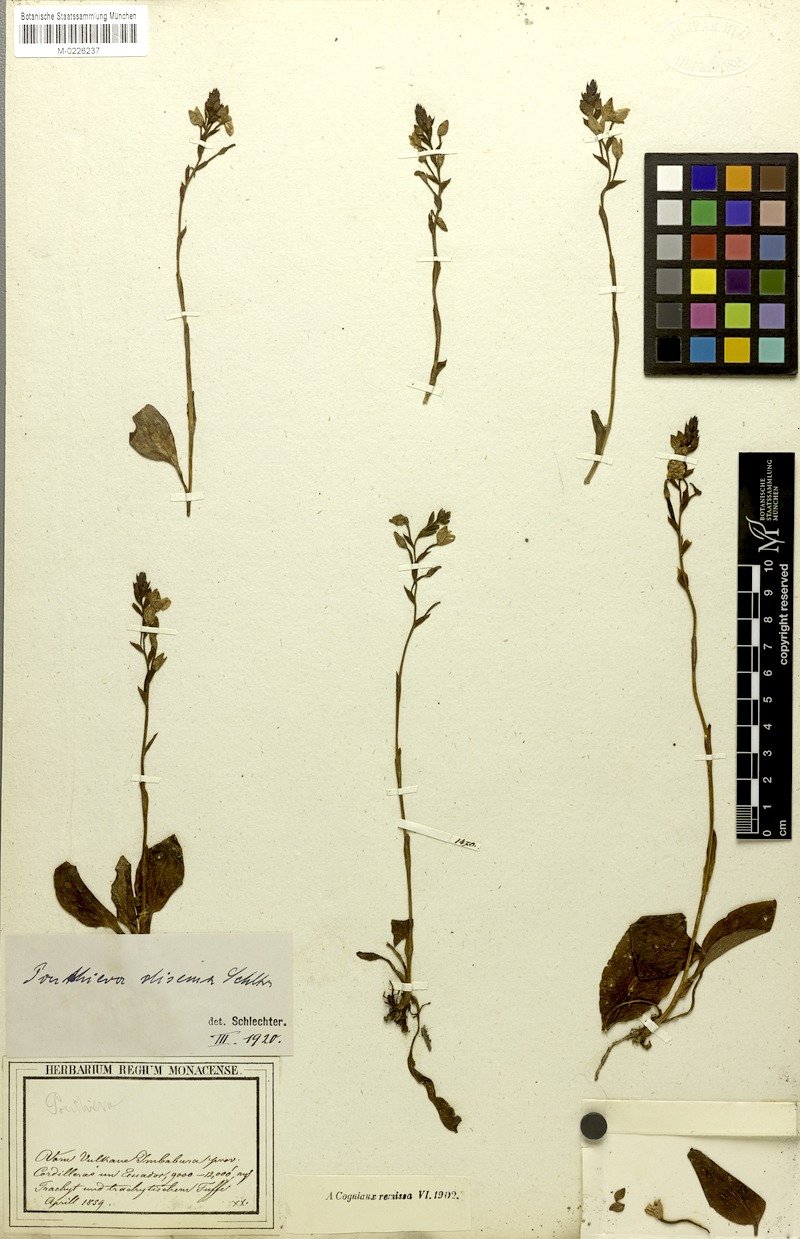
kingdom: Plantae
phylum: Tracheophyta
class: Liliopsida
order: Asparagales
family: Orchidaceae
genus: Ponthieva
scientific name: Ponthieva disema
